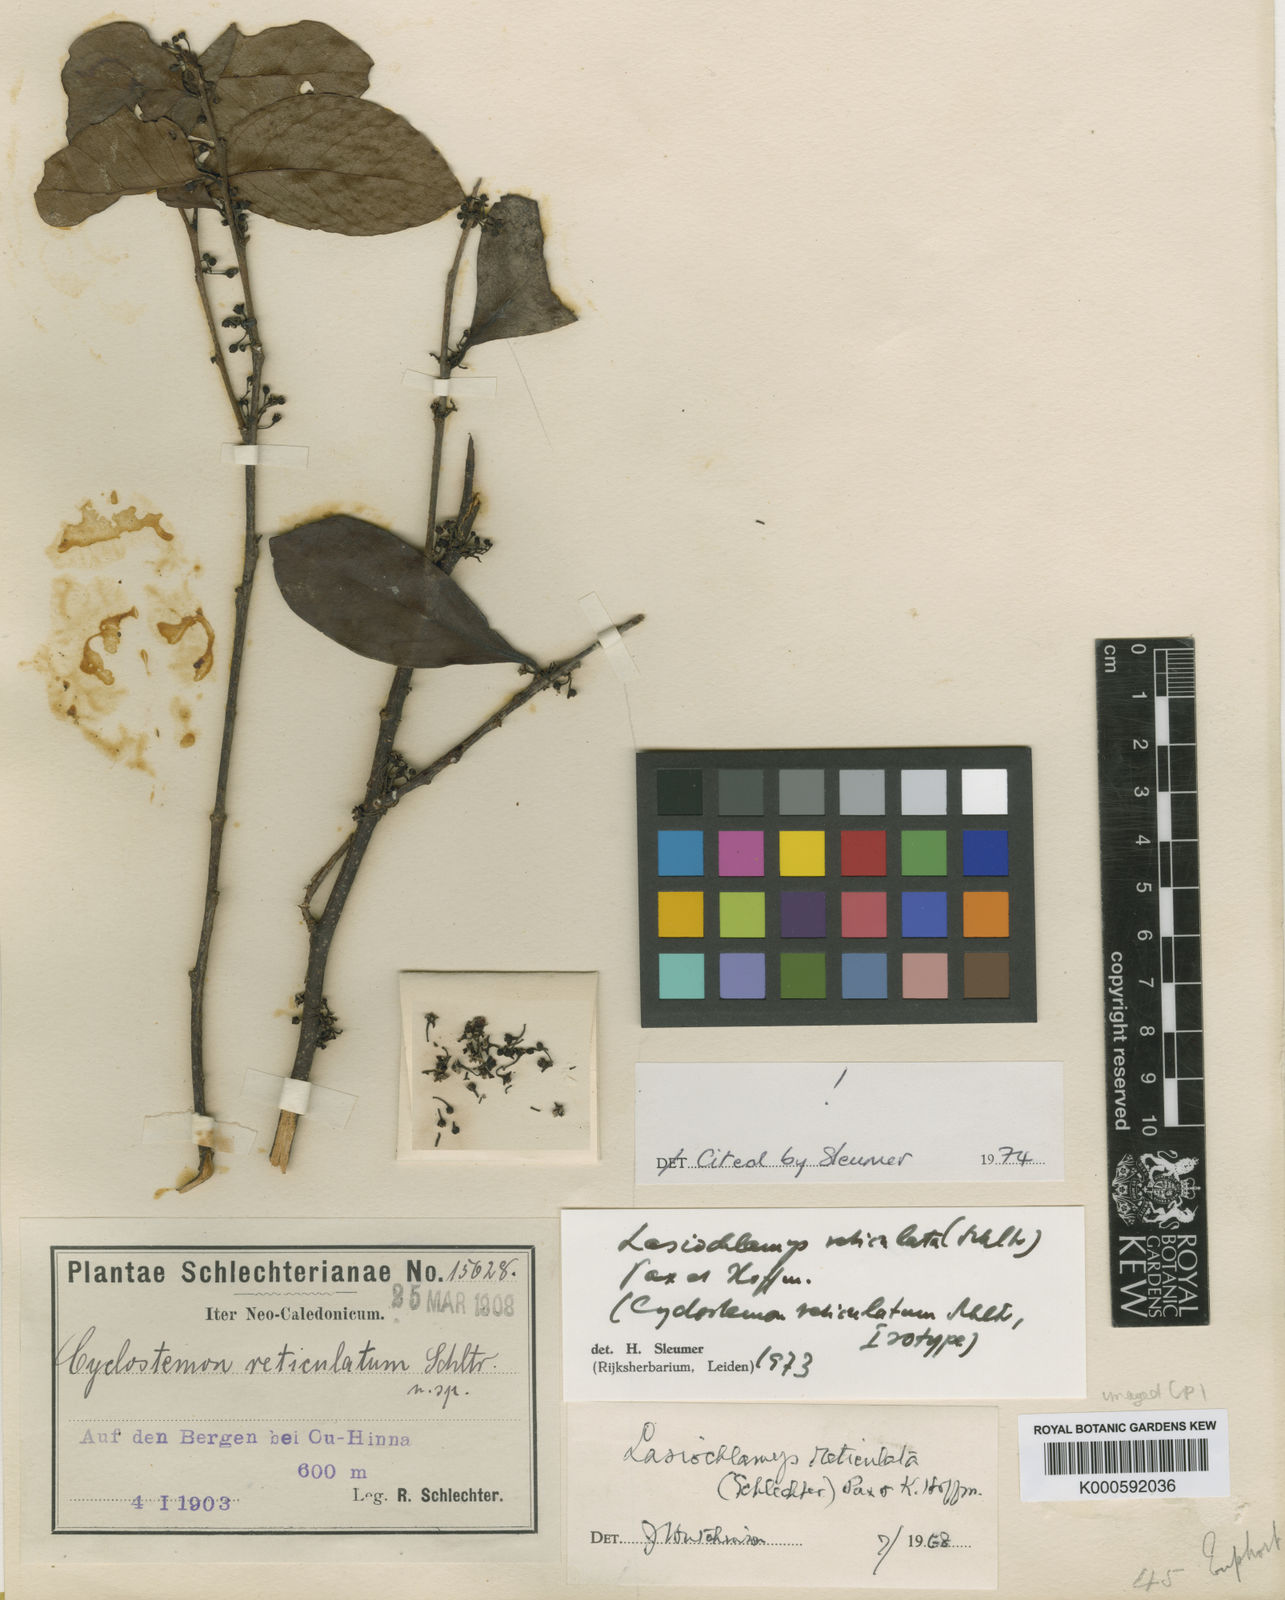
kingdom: Plantae
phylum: Tracheophyta
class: Magnoliopsida
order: Malpighiales
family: Salicaceae
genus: Lasiochlamys
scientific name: Lasiochlamys reticulata
